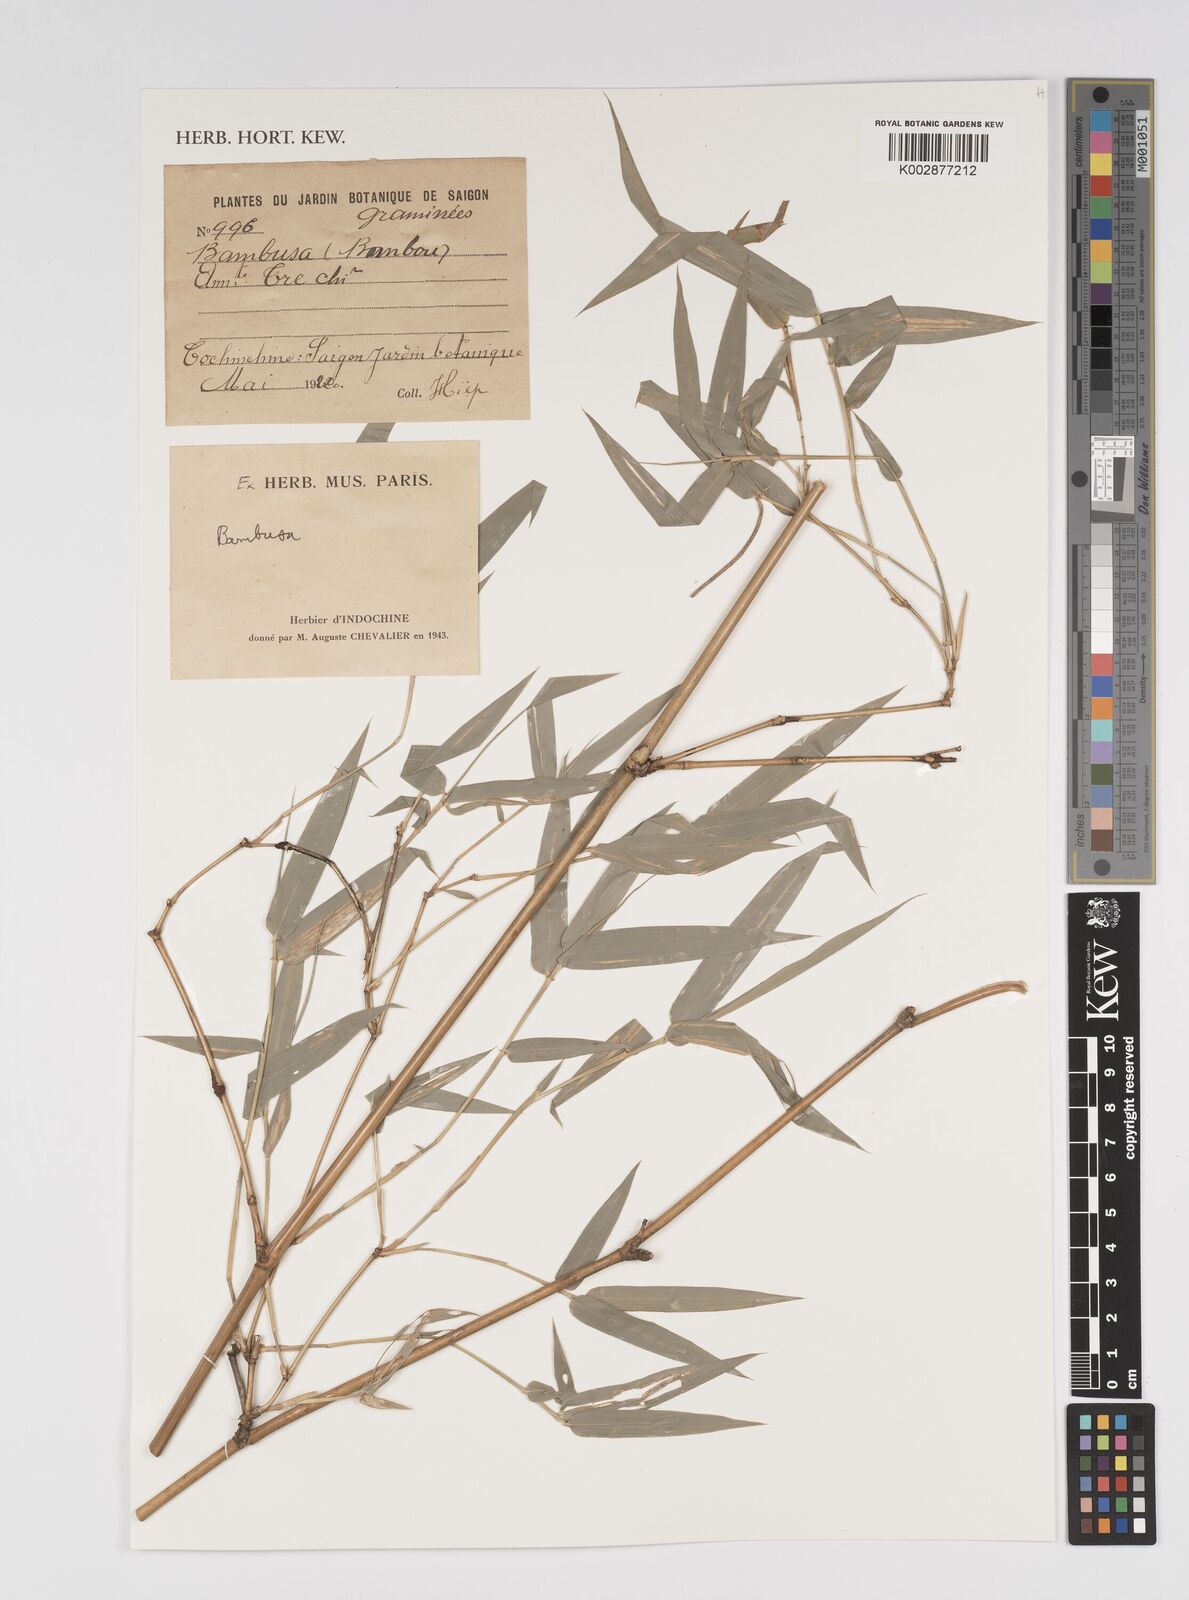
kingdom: Plantae
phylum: Tracheophyta
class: Liliopsida
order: Poales
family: Poaceae
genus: Bambusa
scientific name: Bambusa
